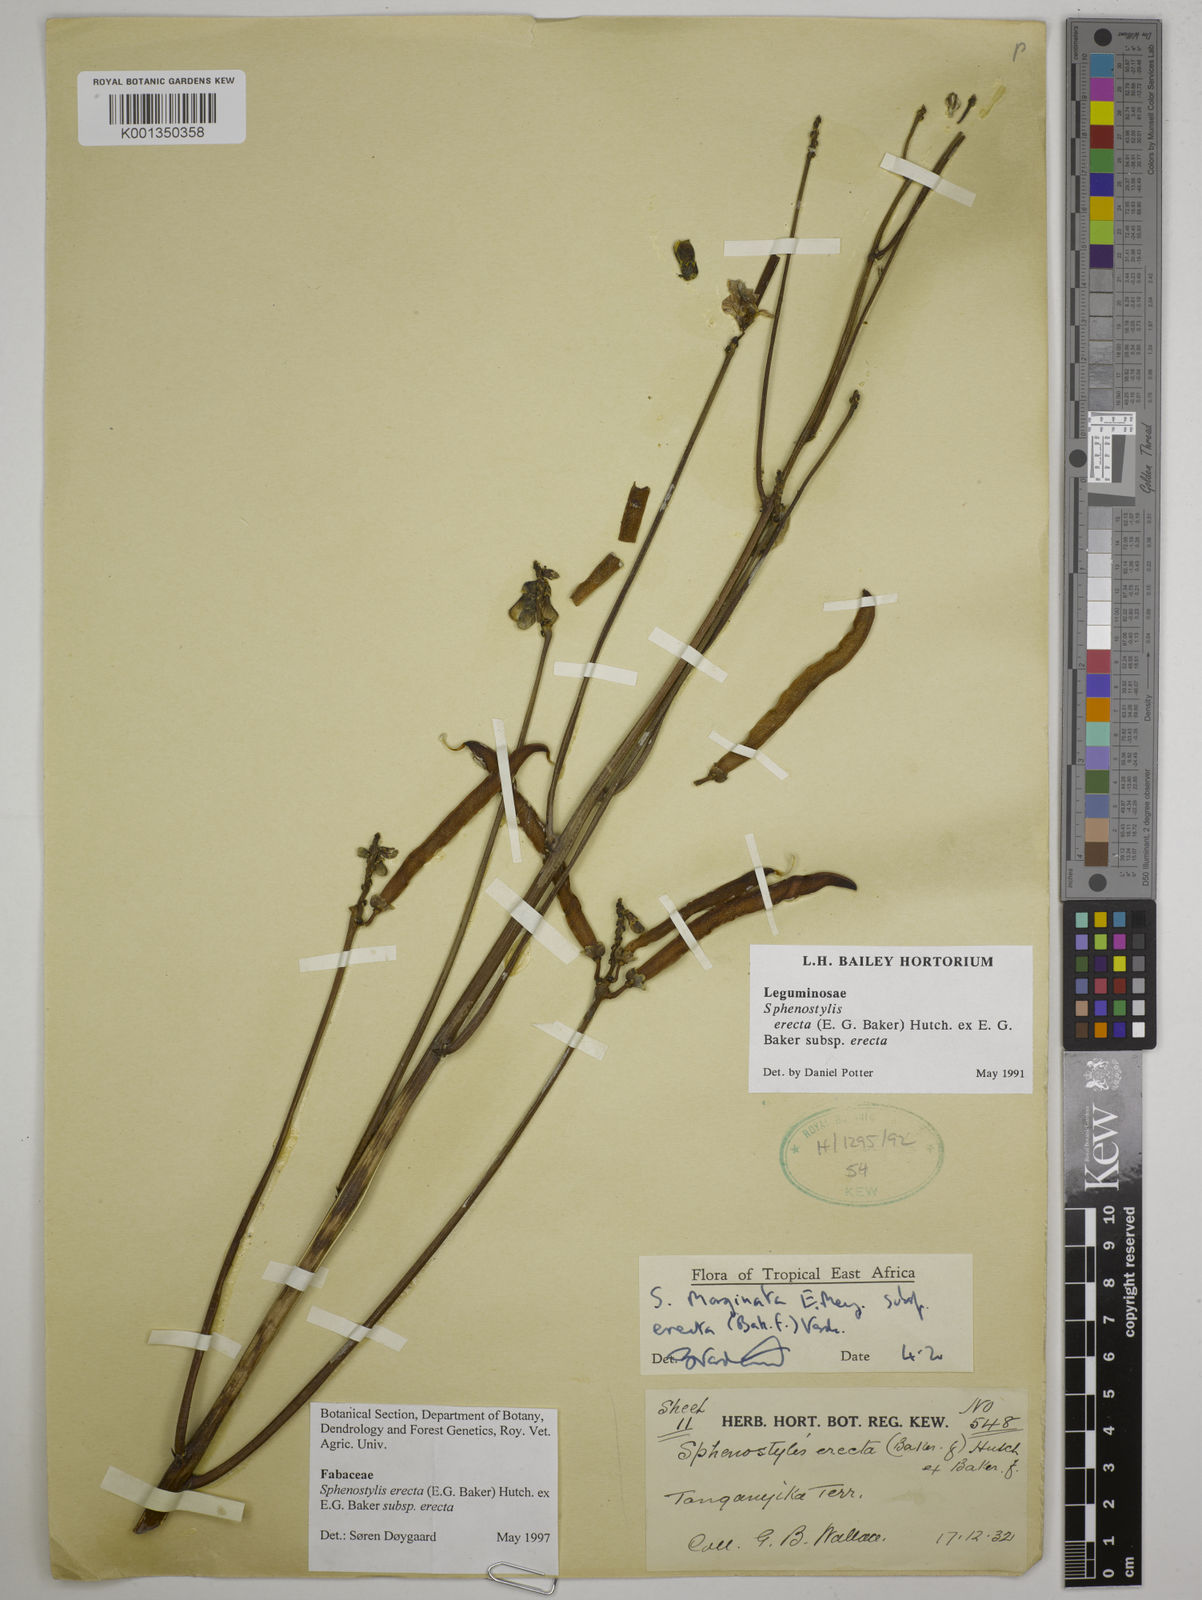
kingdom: Plantae
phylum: Tracheophyta
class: Magnoliopsida
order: Fabales
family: Fabaceae
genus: Sphenostylis
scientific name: Sphenostylis erecta
